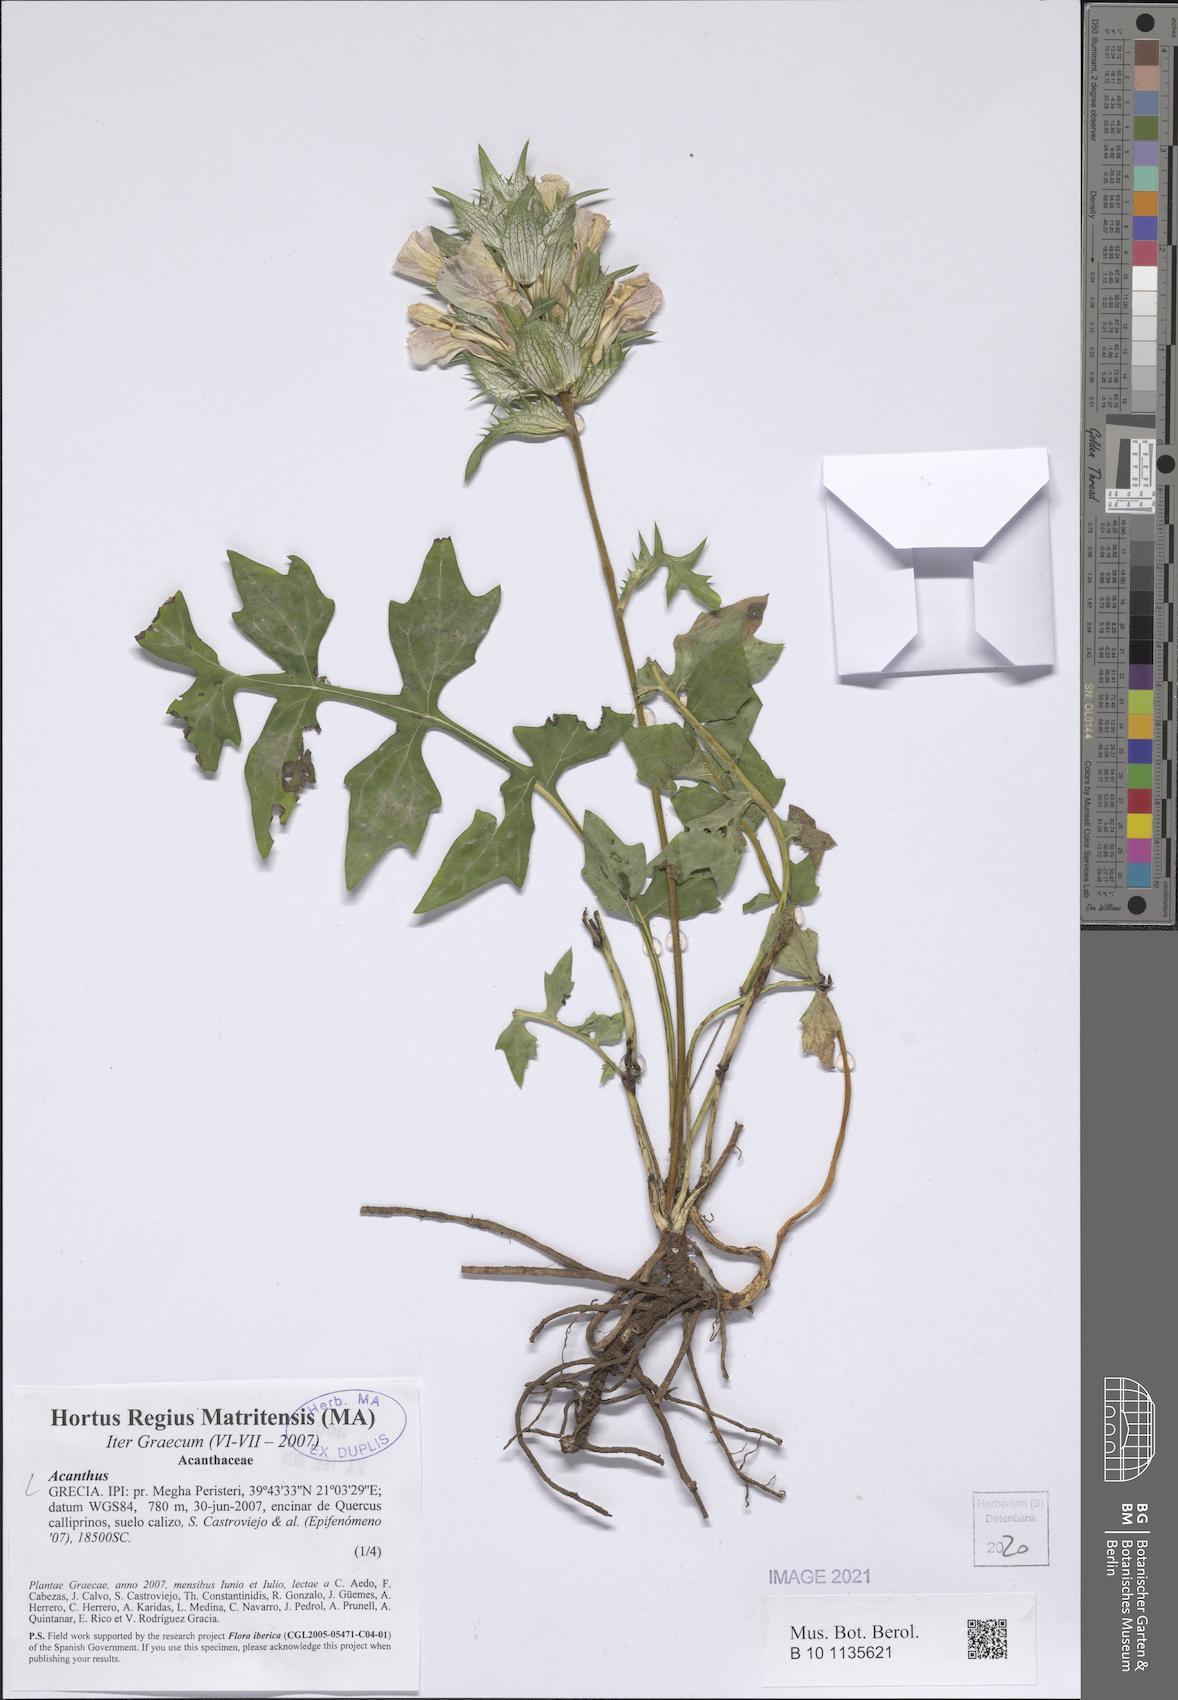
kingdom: Plantae
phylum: Tracheophyta
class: Magnoliopsida
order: Lamiales
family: Acanthaceae
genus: Acanthus
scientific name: Acanthus
